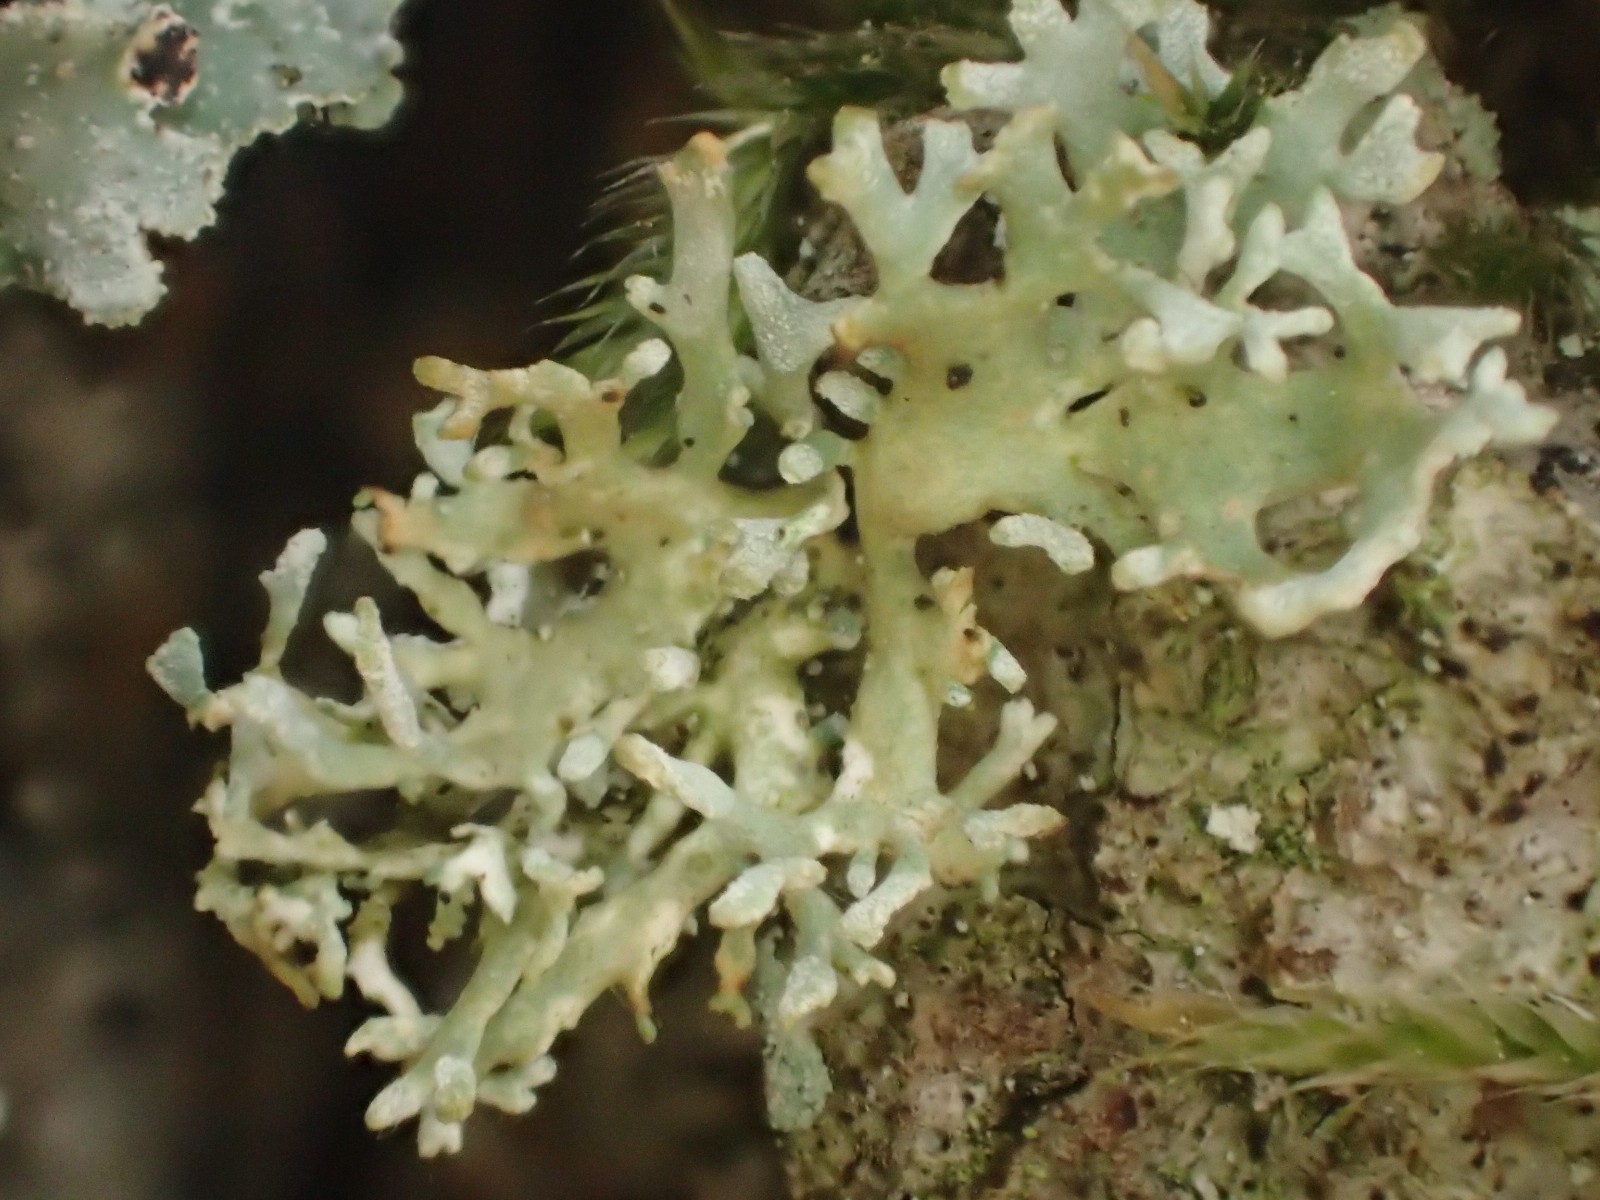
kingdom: Fungi
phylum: Ascomycota
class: Lecanoromycetes
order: Lecanorales
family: Parmeliaceae
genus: Evernia
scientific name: Evernia prunastri
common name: almindelig slåenlav
